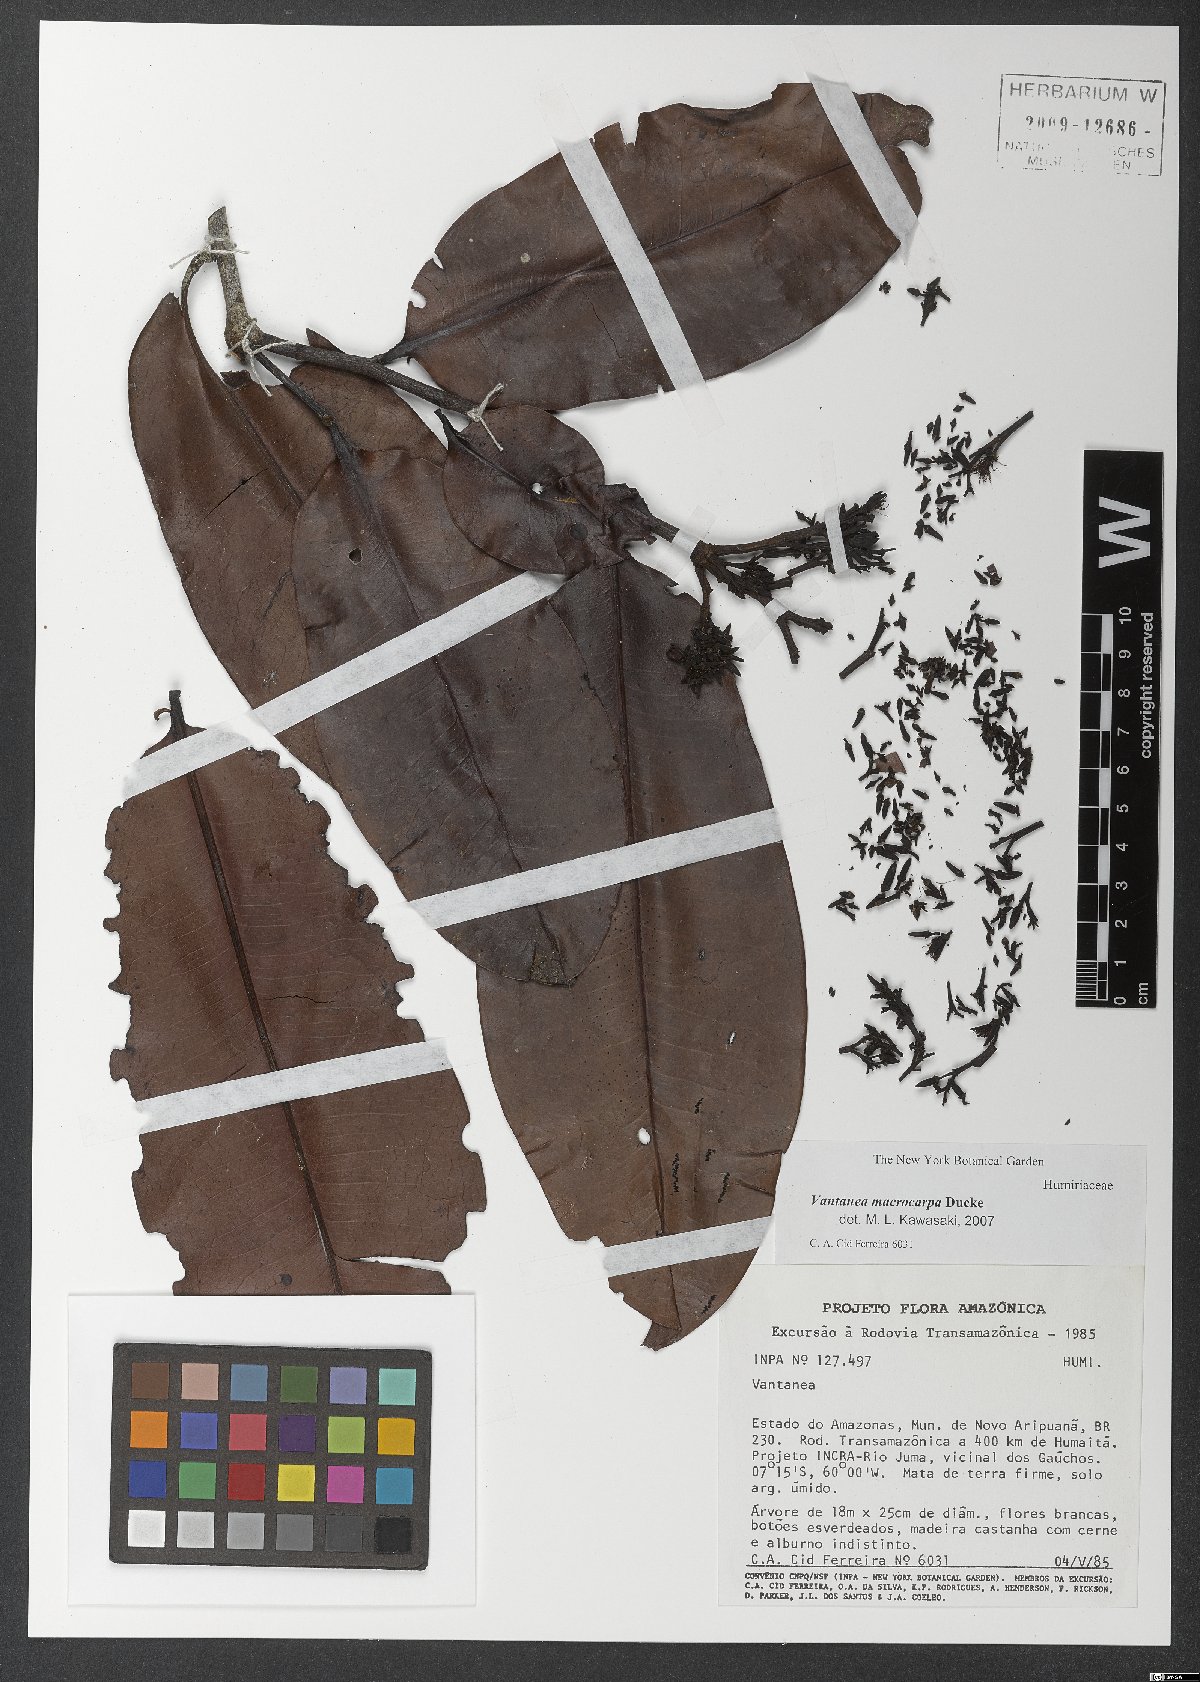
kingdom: Plantae
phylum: Tracheophyta
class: Magnoliopsida
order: Malpighiales
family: Humiriaceae
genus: Vantanea
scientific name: Vantanea macrocarpa
